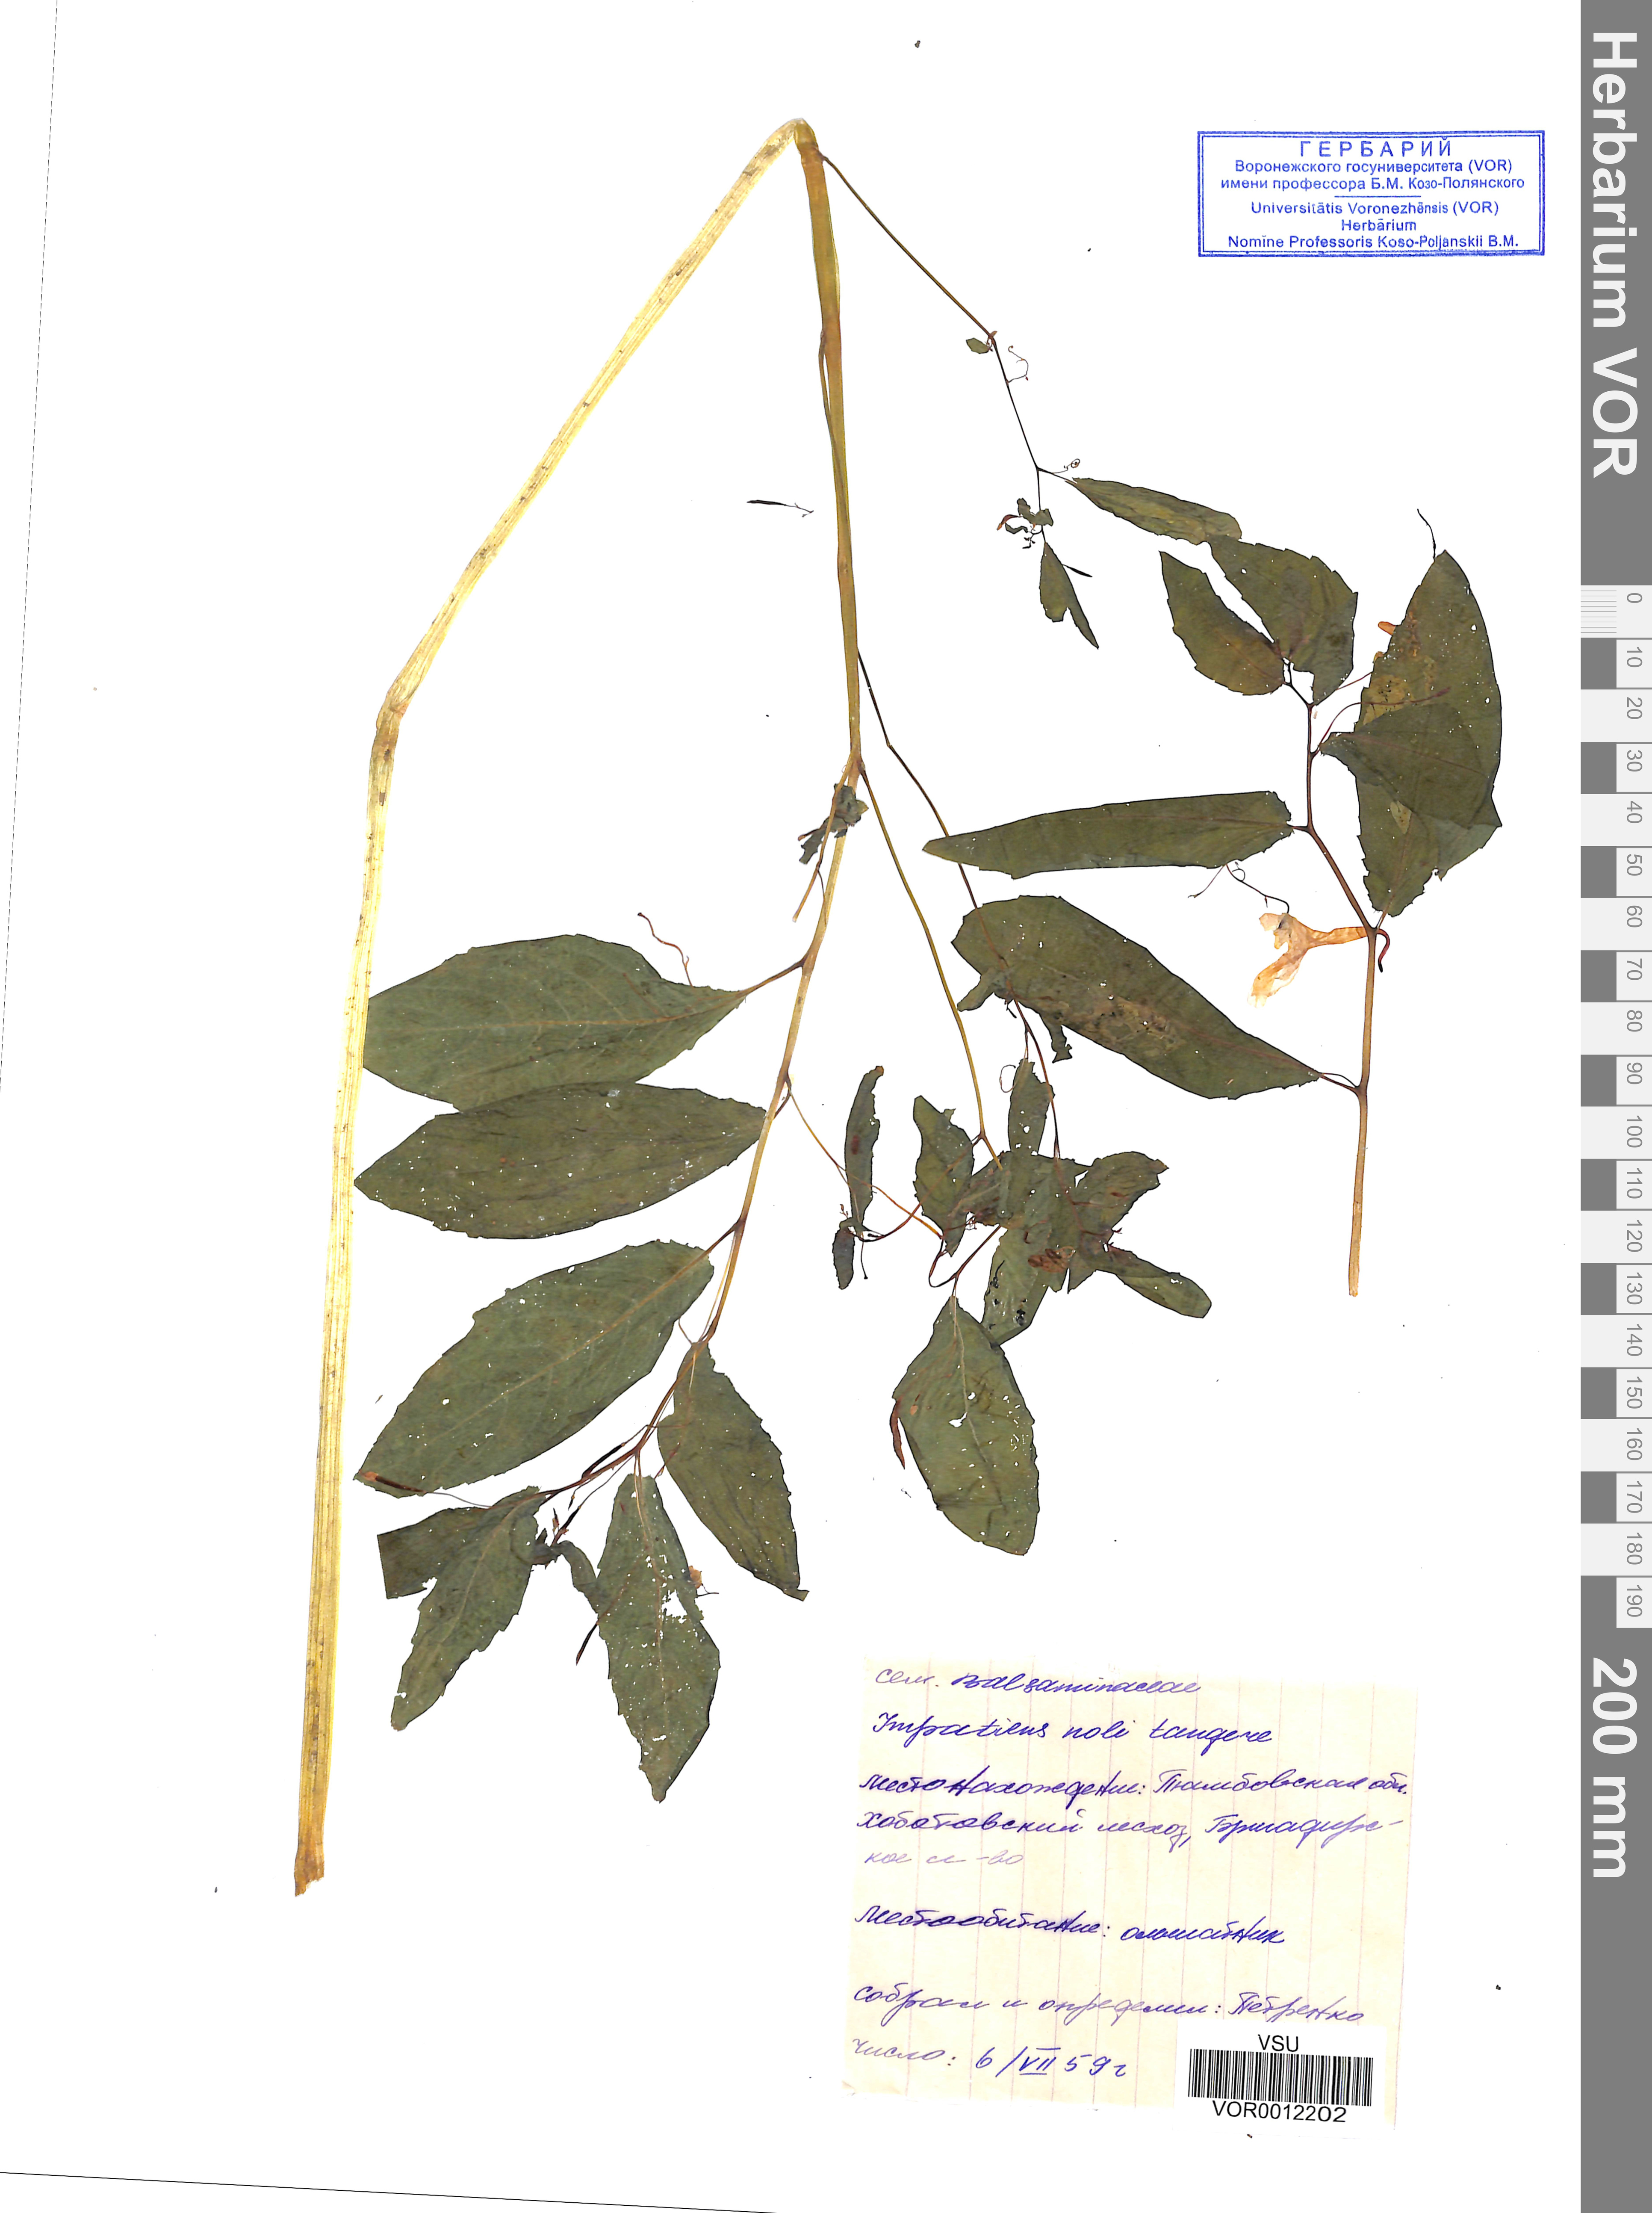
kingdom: Plantae
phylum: Tracheophyta
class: Magnoliopsida
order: Ericales
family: Balsaminaceae
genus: Impatiens
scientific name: Impatiens noli-tangere
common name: Touch-me-not balsam
